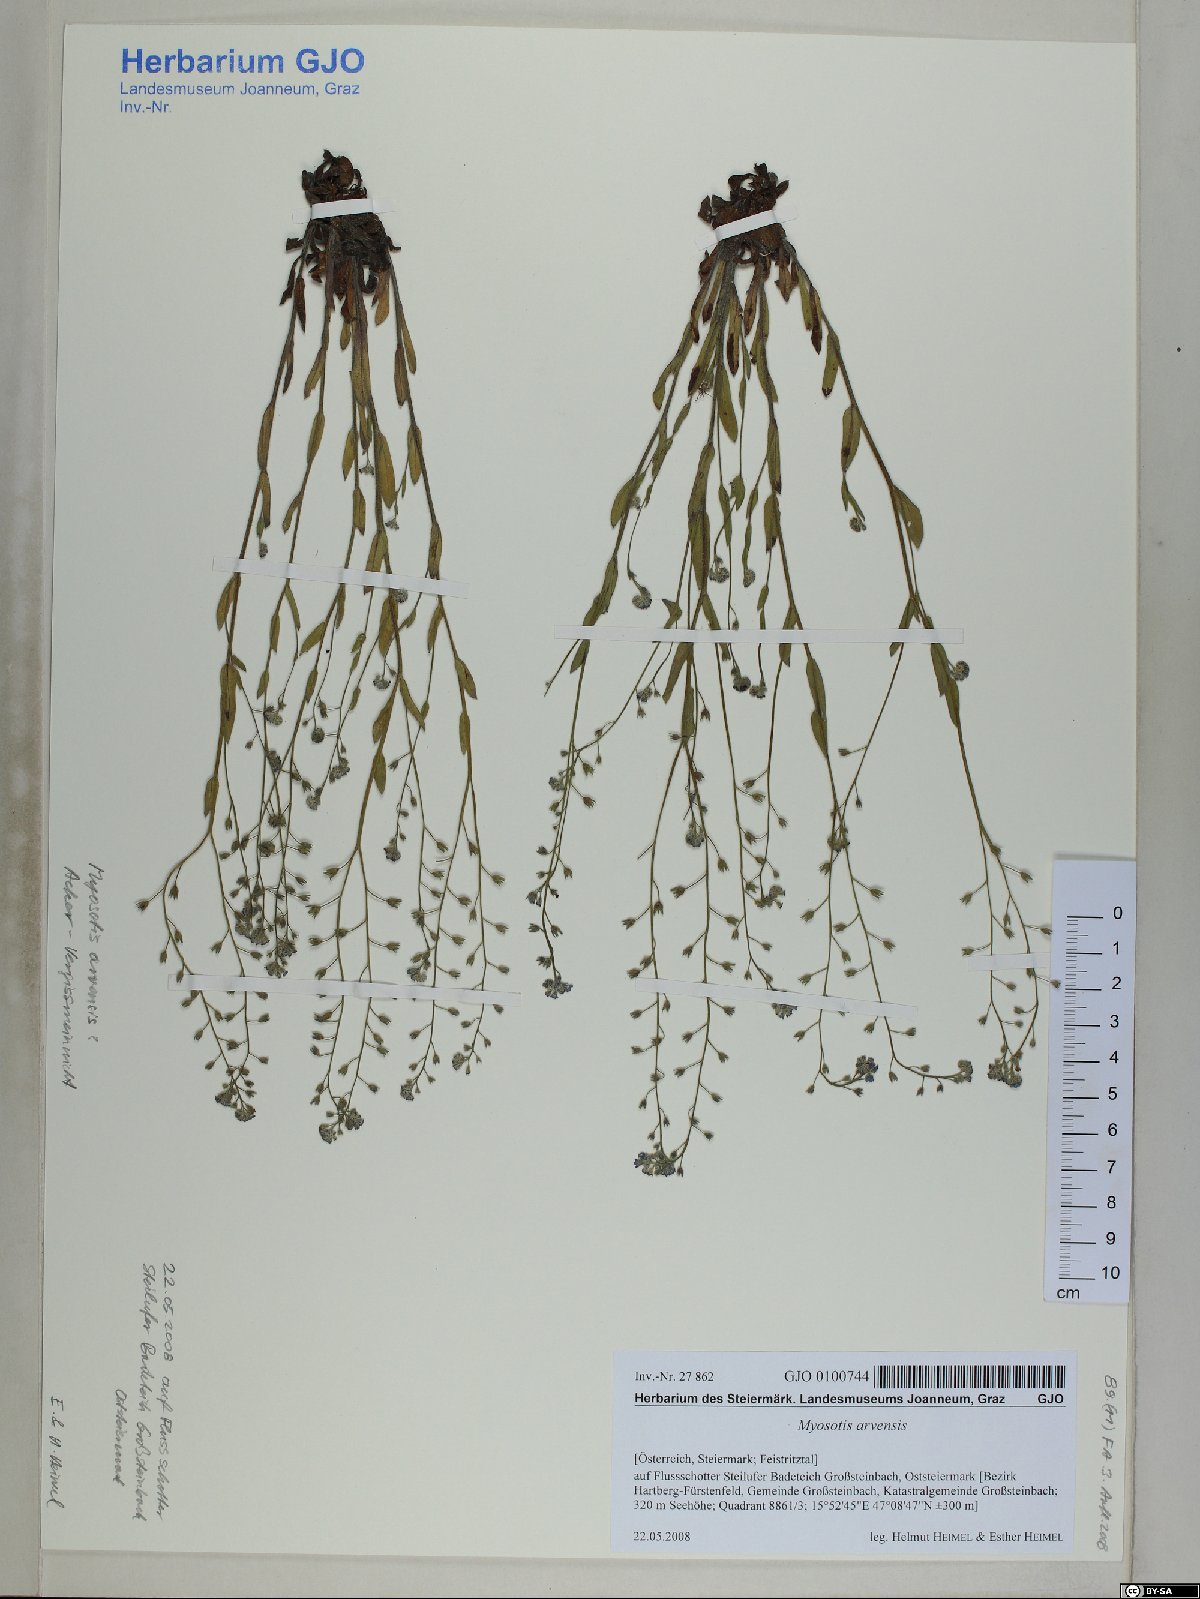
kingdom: Plantae
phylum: Tracheophyta
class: Magnoliopsida
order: Boraginales
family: Boraginaceae
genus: Myosotis
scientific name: Myosotis arvensis
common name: Field forget-me-not
